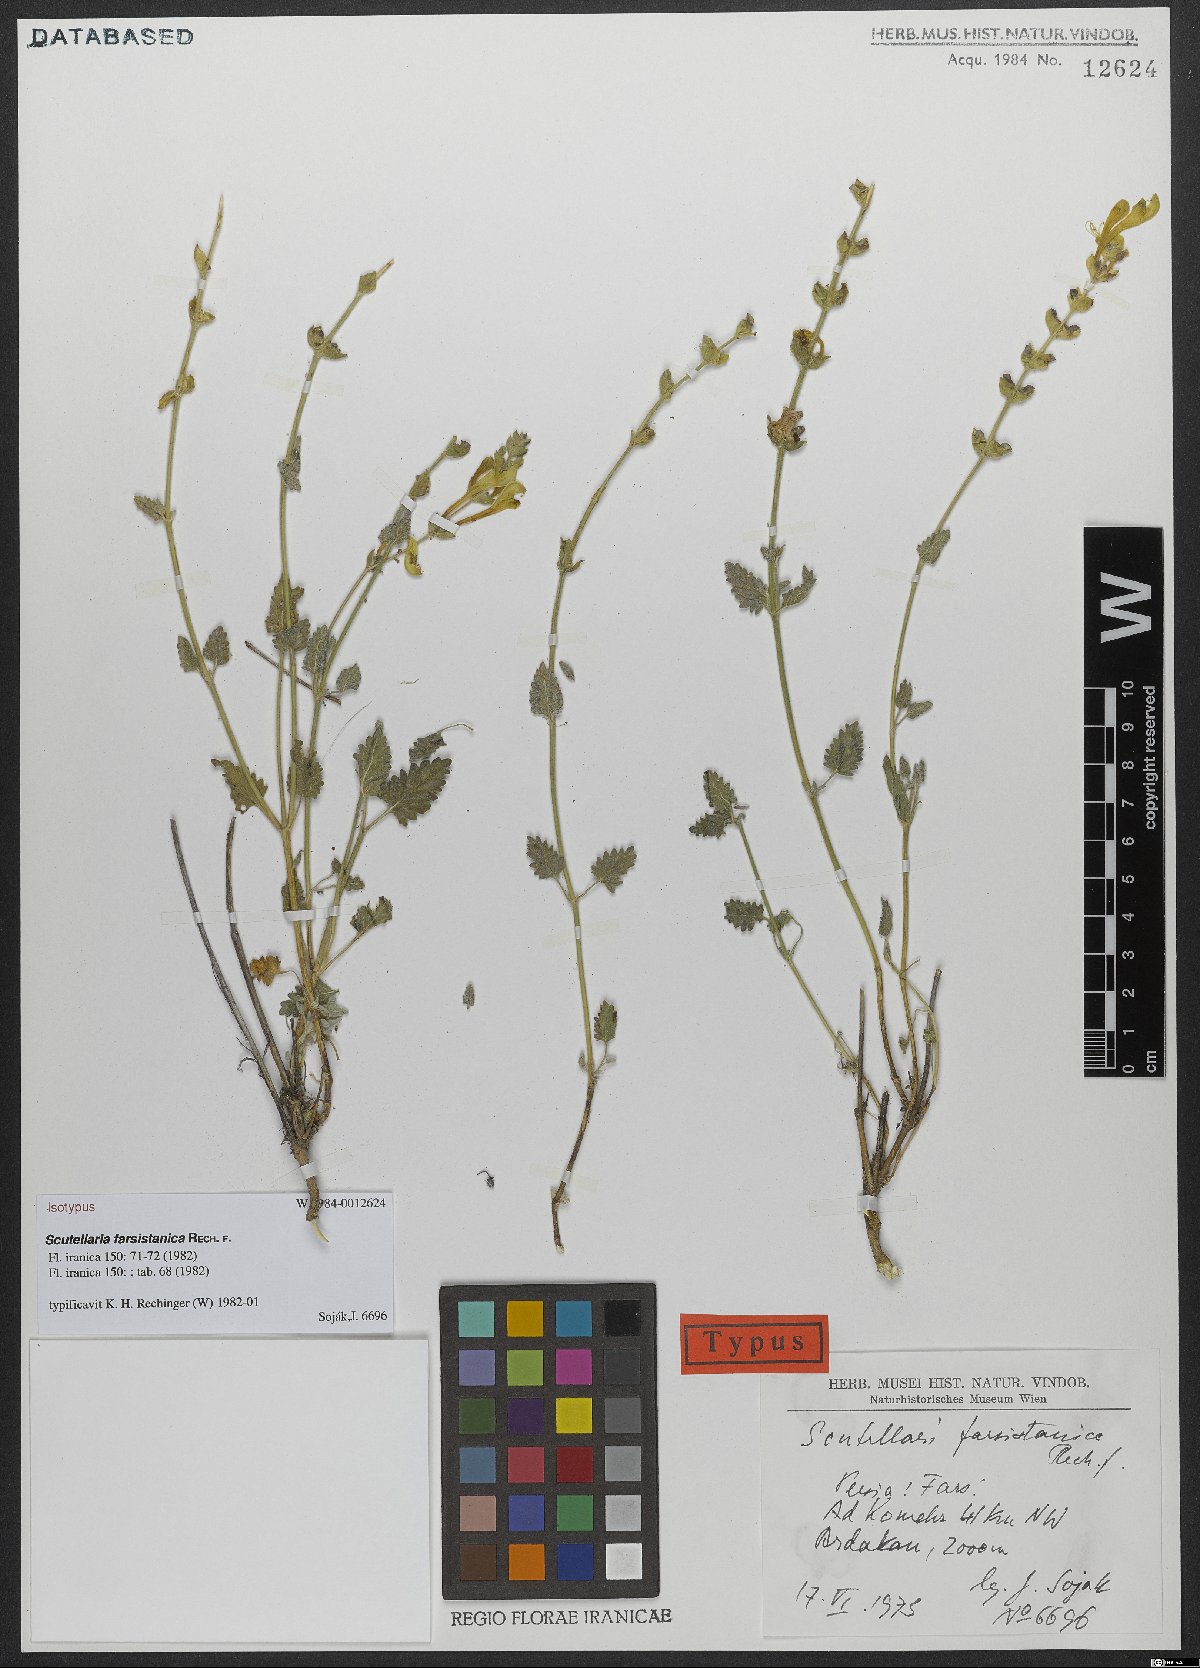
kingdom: Plantae
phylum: Tracheophyta
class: Magnoliopsida
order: Lamiales
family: Lamiaceae
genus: Scutellaria
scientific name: Scutellaria farsistanica
